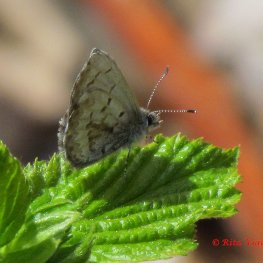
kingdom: Animalia
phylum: Arthropoda
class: Insecta
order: Lepidoptera
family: Lycaenidae
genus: Celastrina
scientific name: Celastrina lucia
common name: Northern Spring Azure
